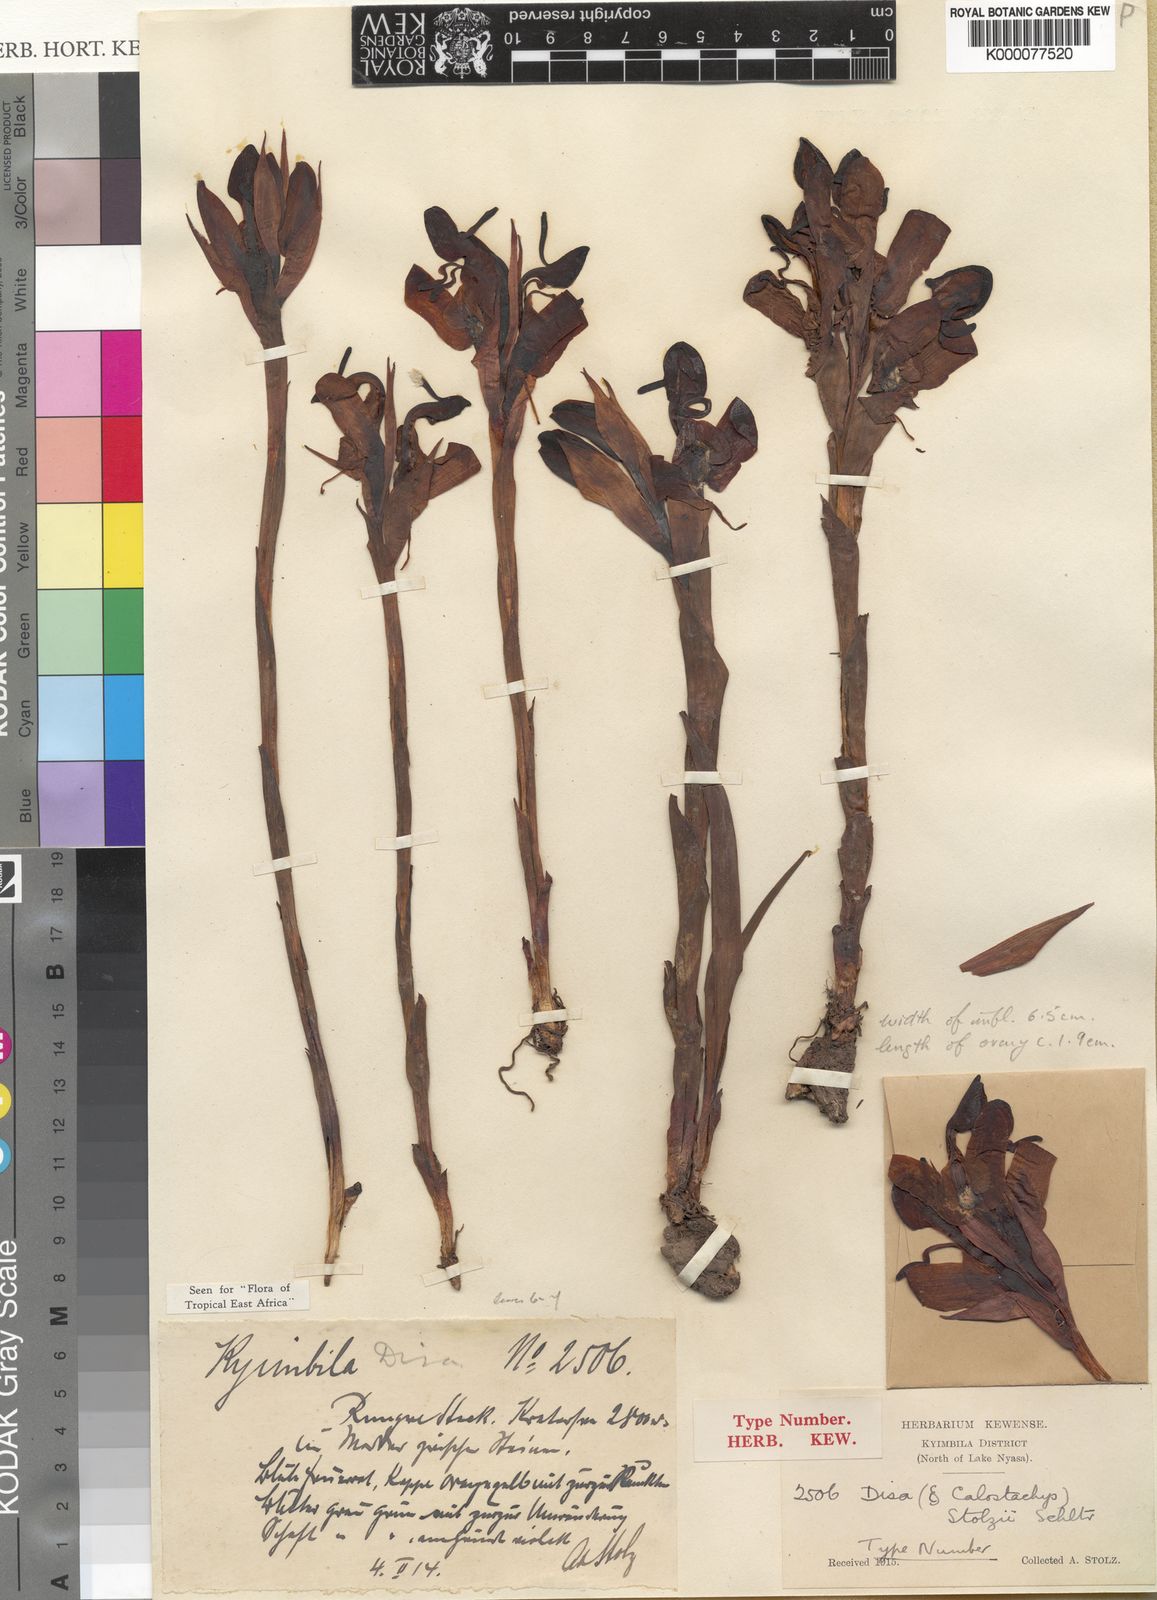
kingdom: Plantae
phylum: Tracheophyta
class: Liliopsida
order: Asparagales
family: Orchidaceae
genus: Disa
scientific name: Disa erubescens
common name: The rose disa
